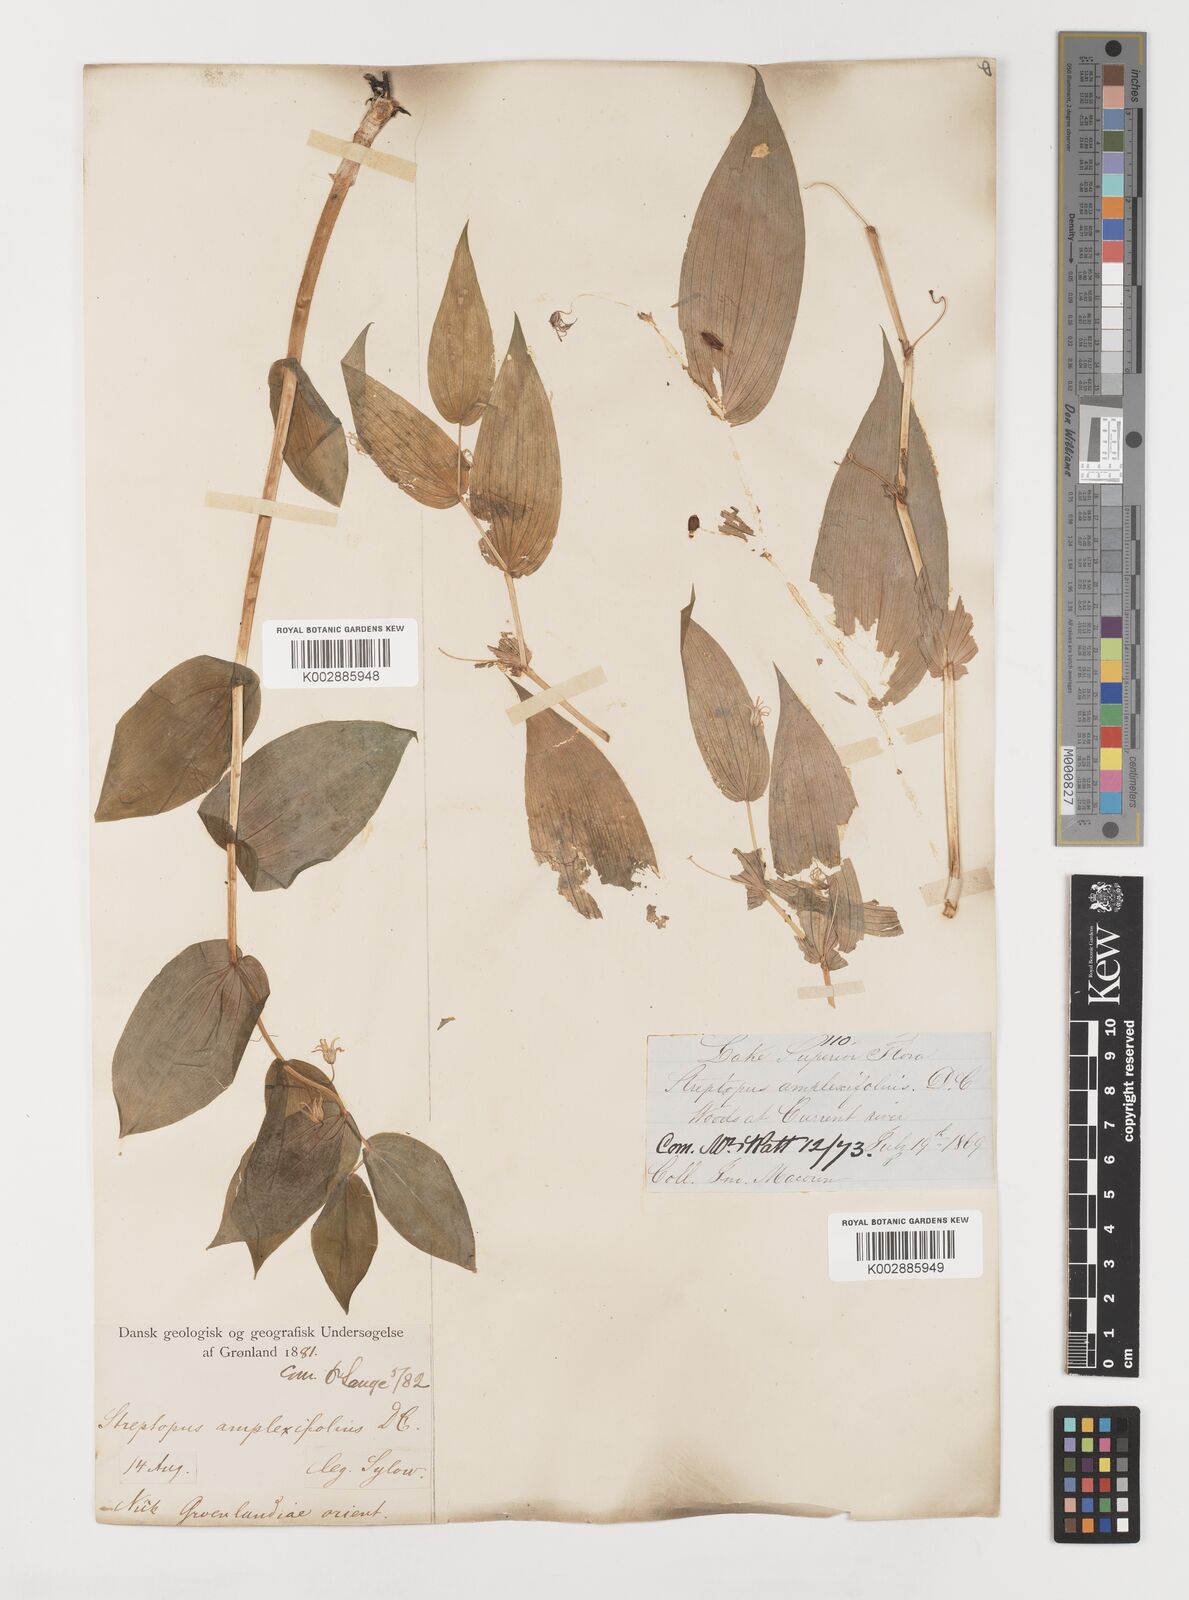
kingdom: Plantae
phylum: Tracheophyta
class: Liliopsida
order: Liliales
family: Liliaceae
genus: Streptopus
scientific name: Streptopus amplexifolius
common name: Clasp twisted stalk
